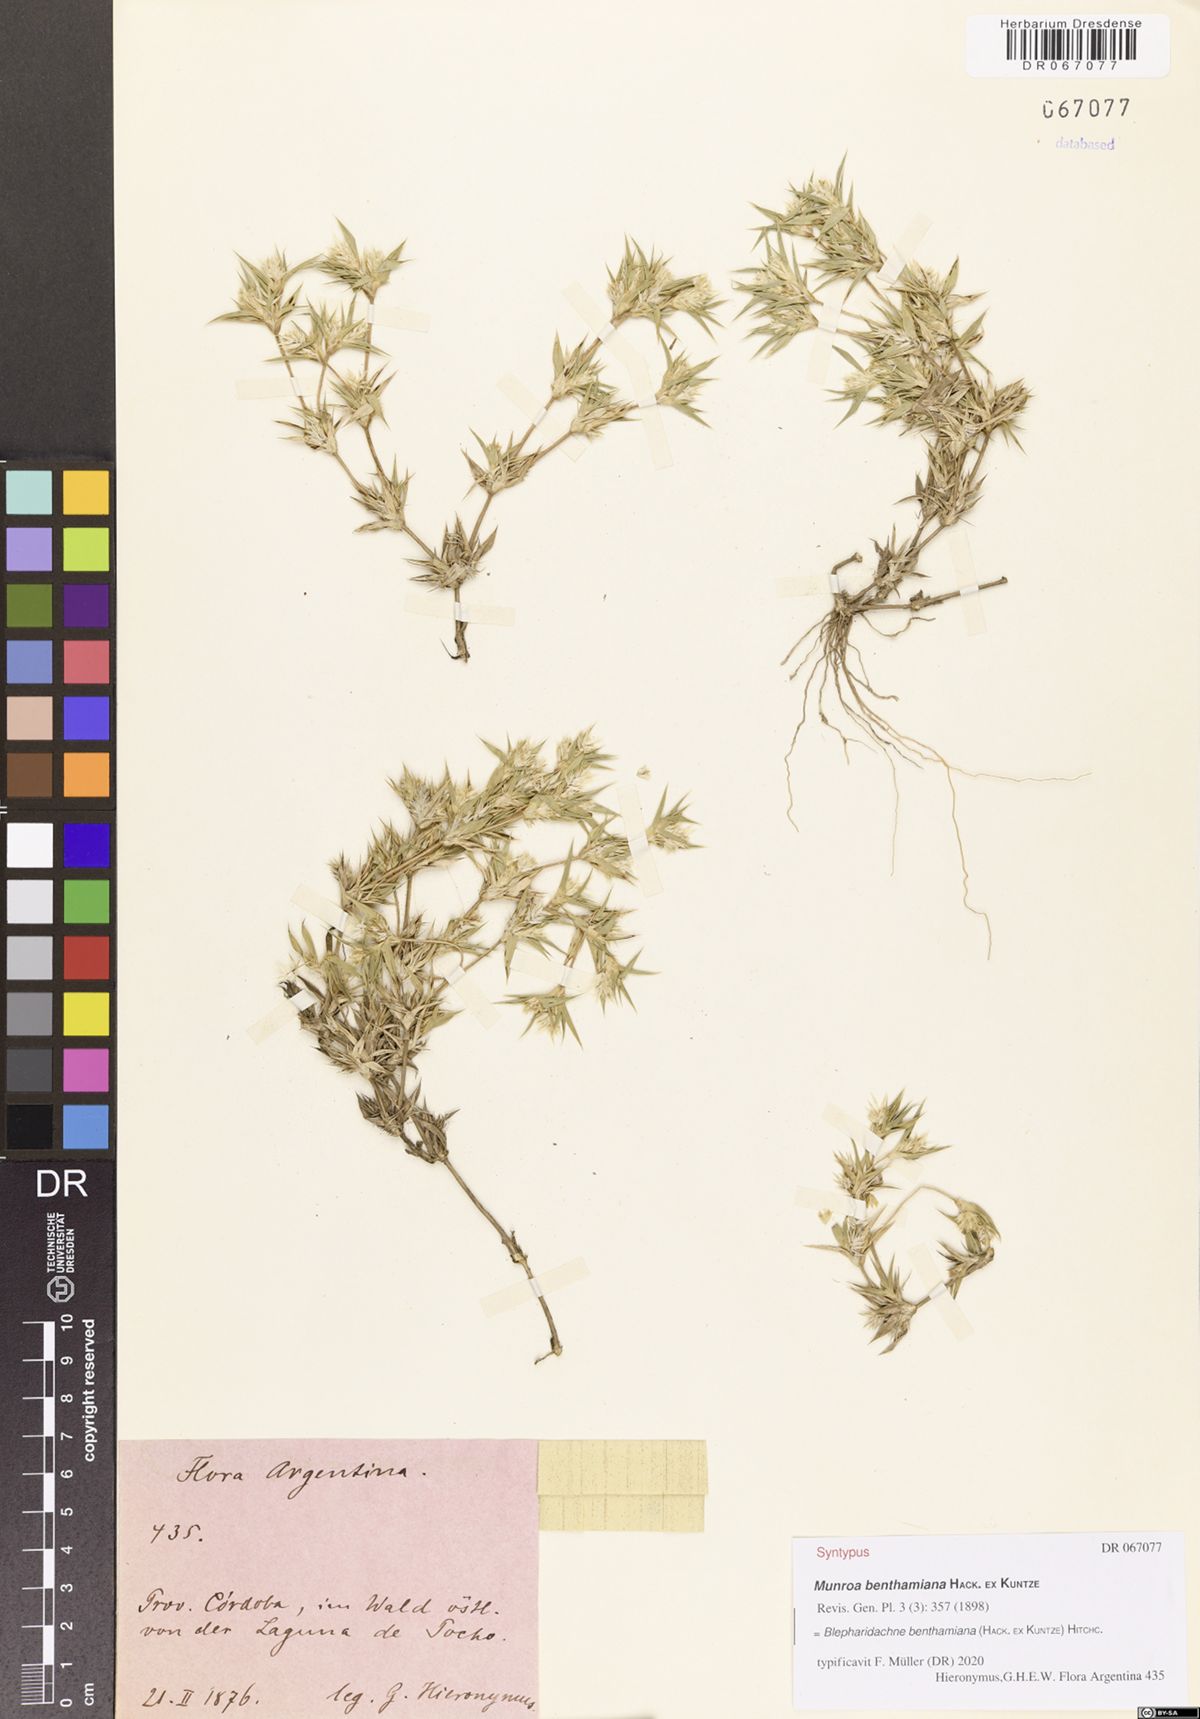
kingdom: Plantae
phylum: Tracheophyta
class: Liliopsida
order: Poales
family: Poaceae
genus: Blepharidachne
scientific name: Blepharidachne benthamiana
